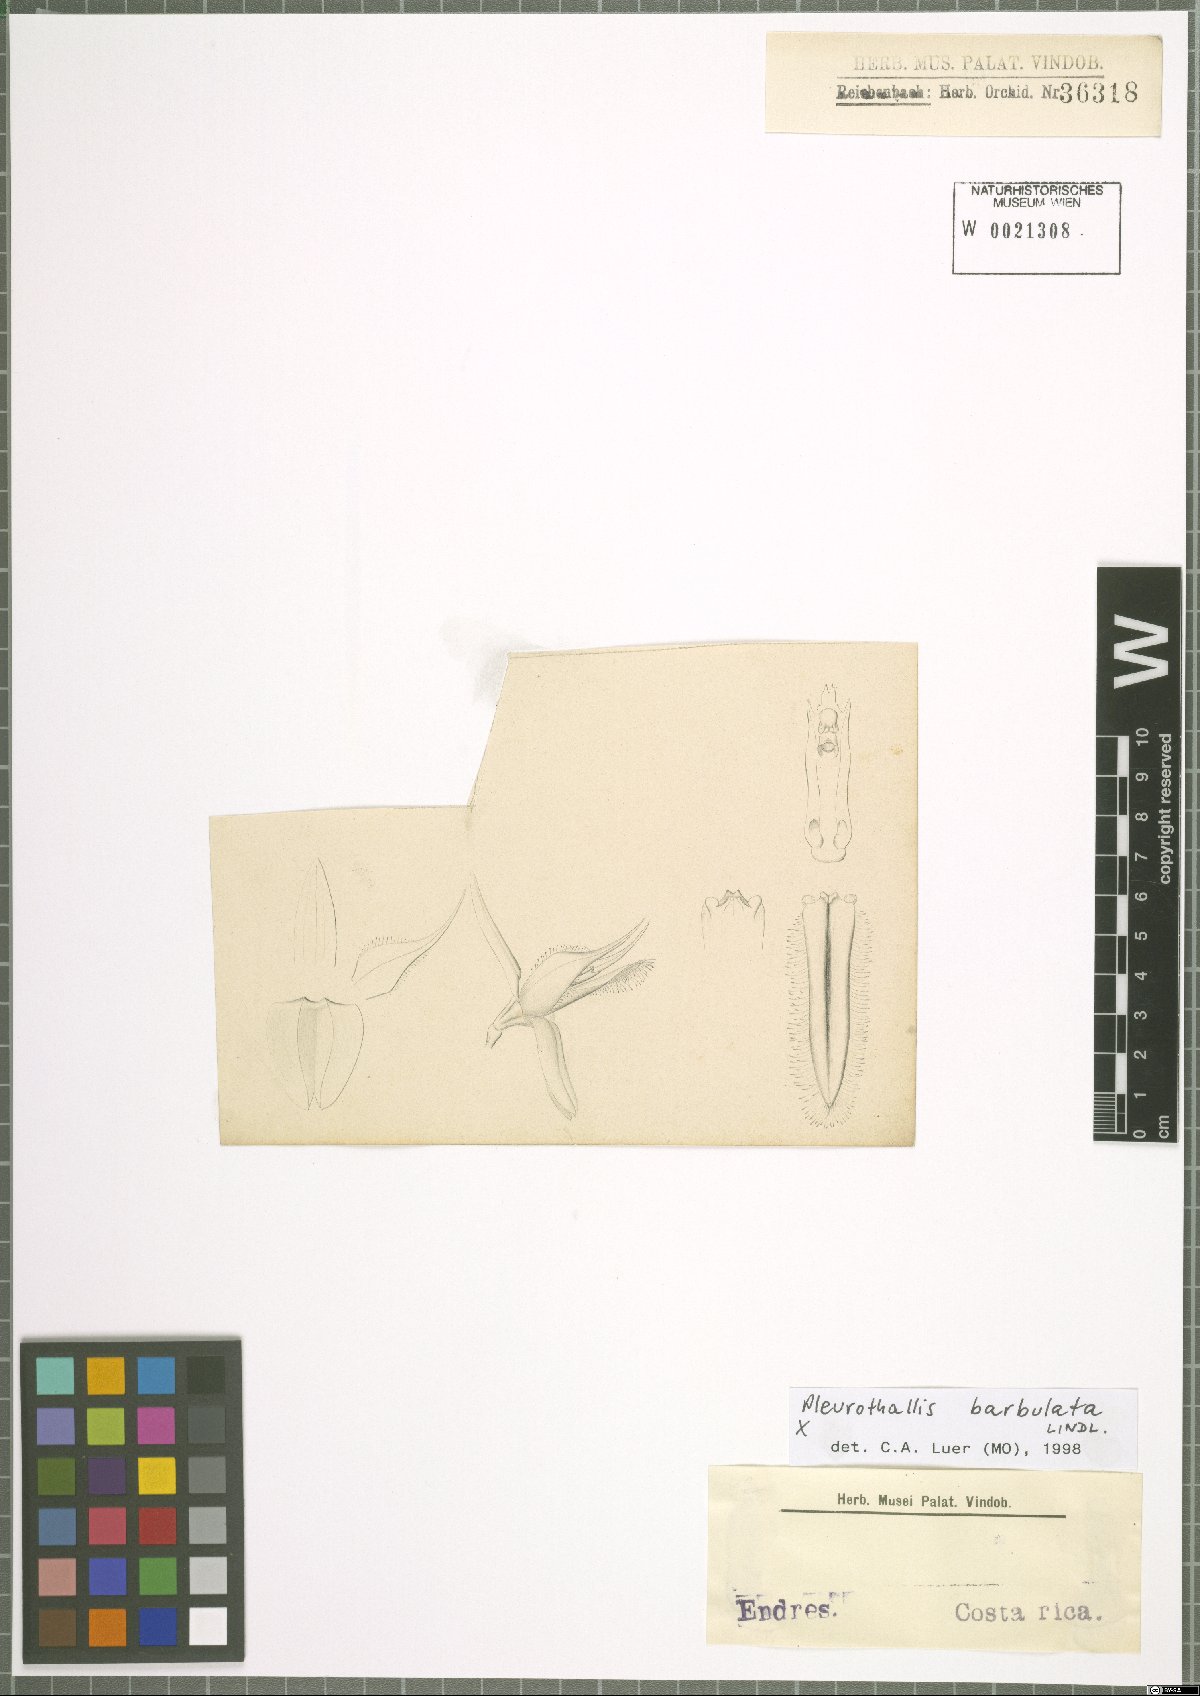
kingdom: Plantae
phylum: Tracheophyta
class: Liliopsida
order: Asparagales
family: Orchidaceae
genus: Anathallis
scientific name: Anathallis barbulata
